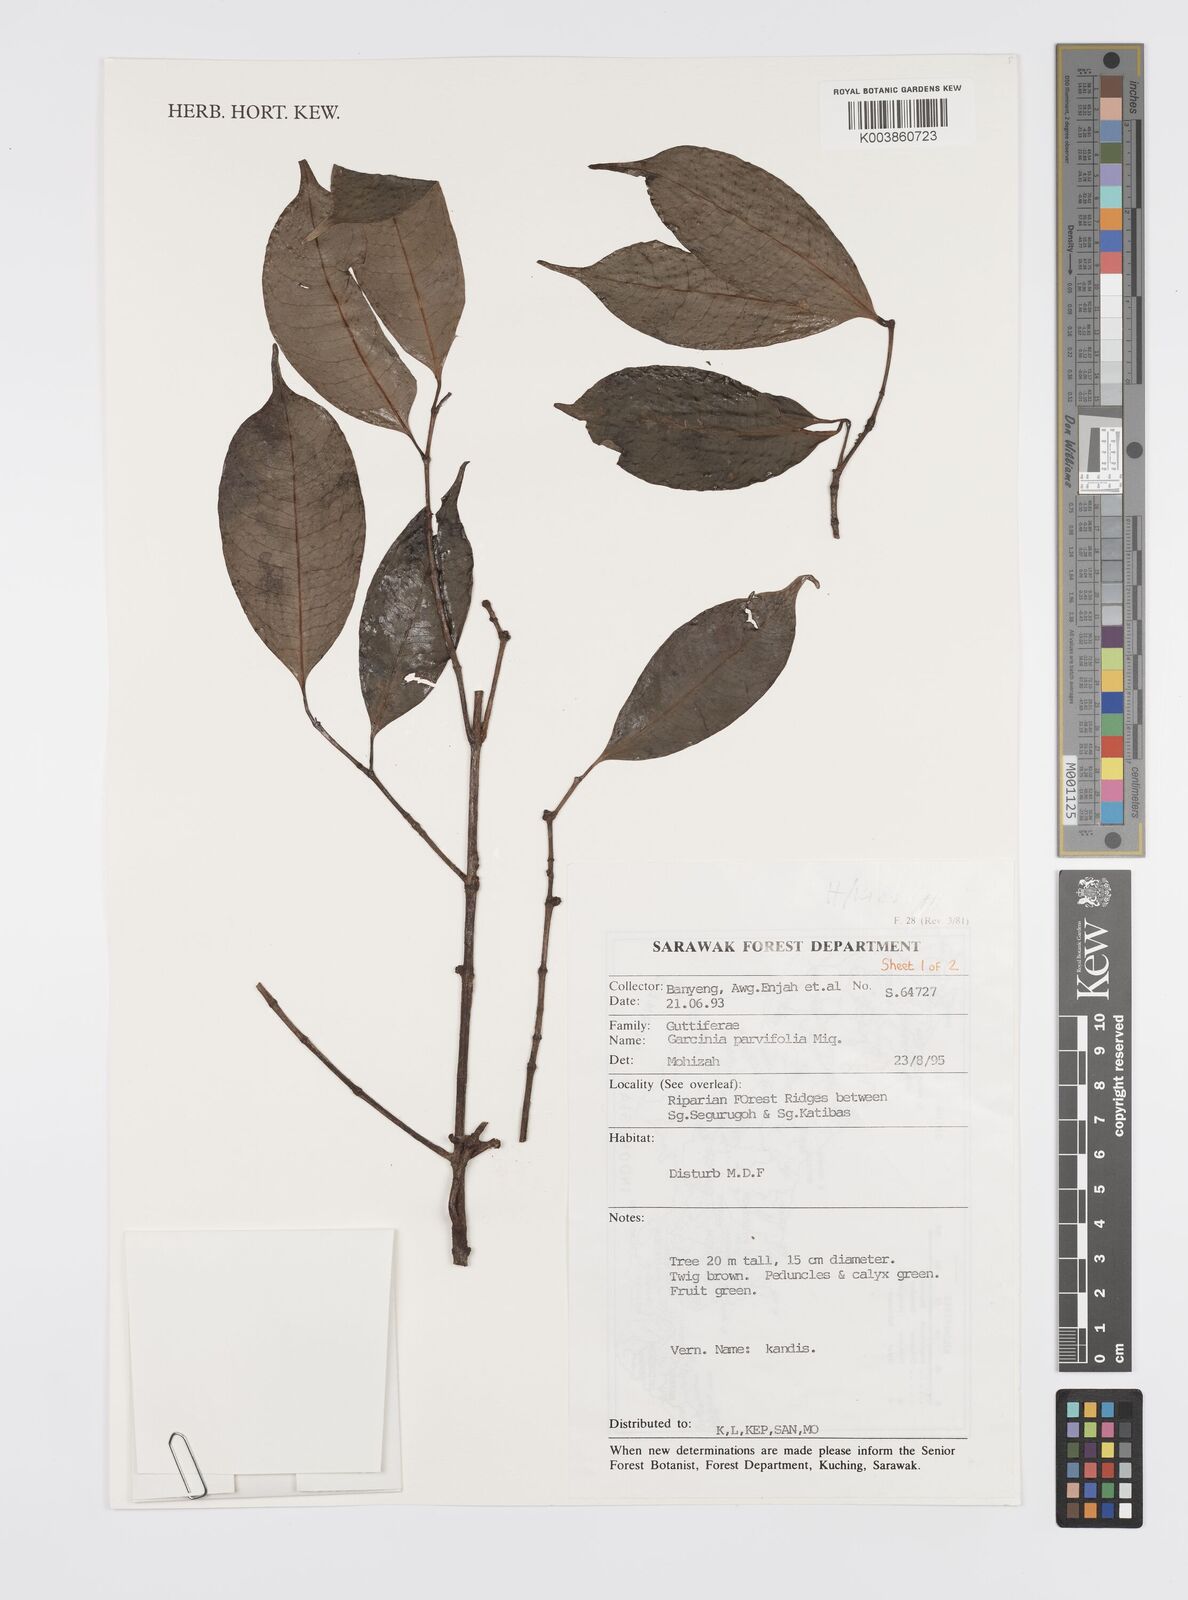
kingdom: Plantae
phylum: Tracheophyta
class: Magnoliopsida
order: Malpighiales
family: Clusiaceae
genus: Garcinia
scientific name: Garcinia parvifolia
